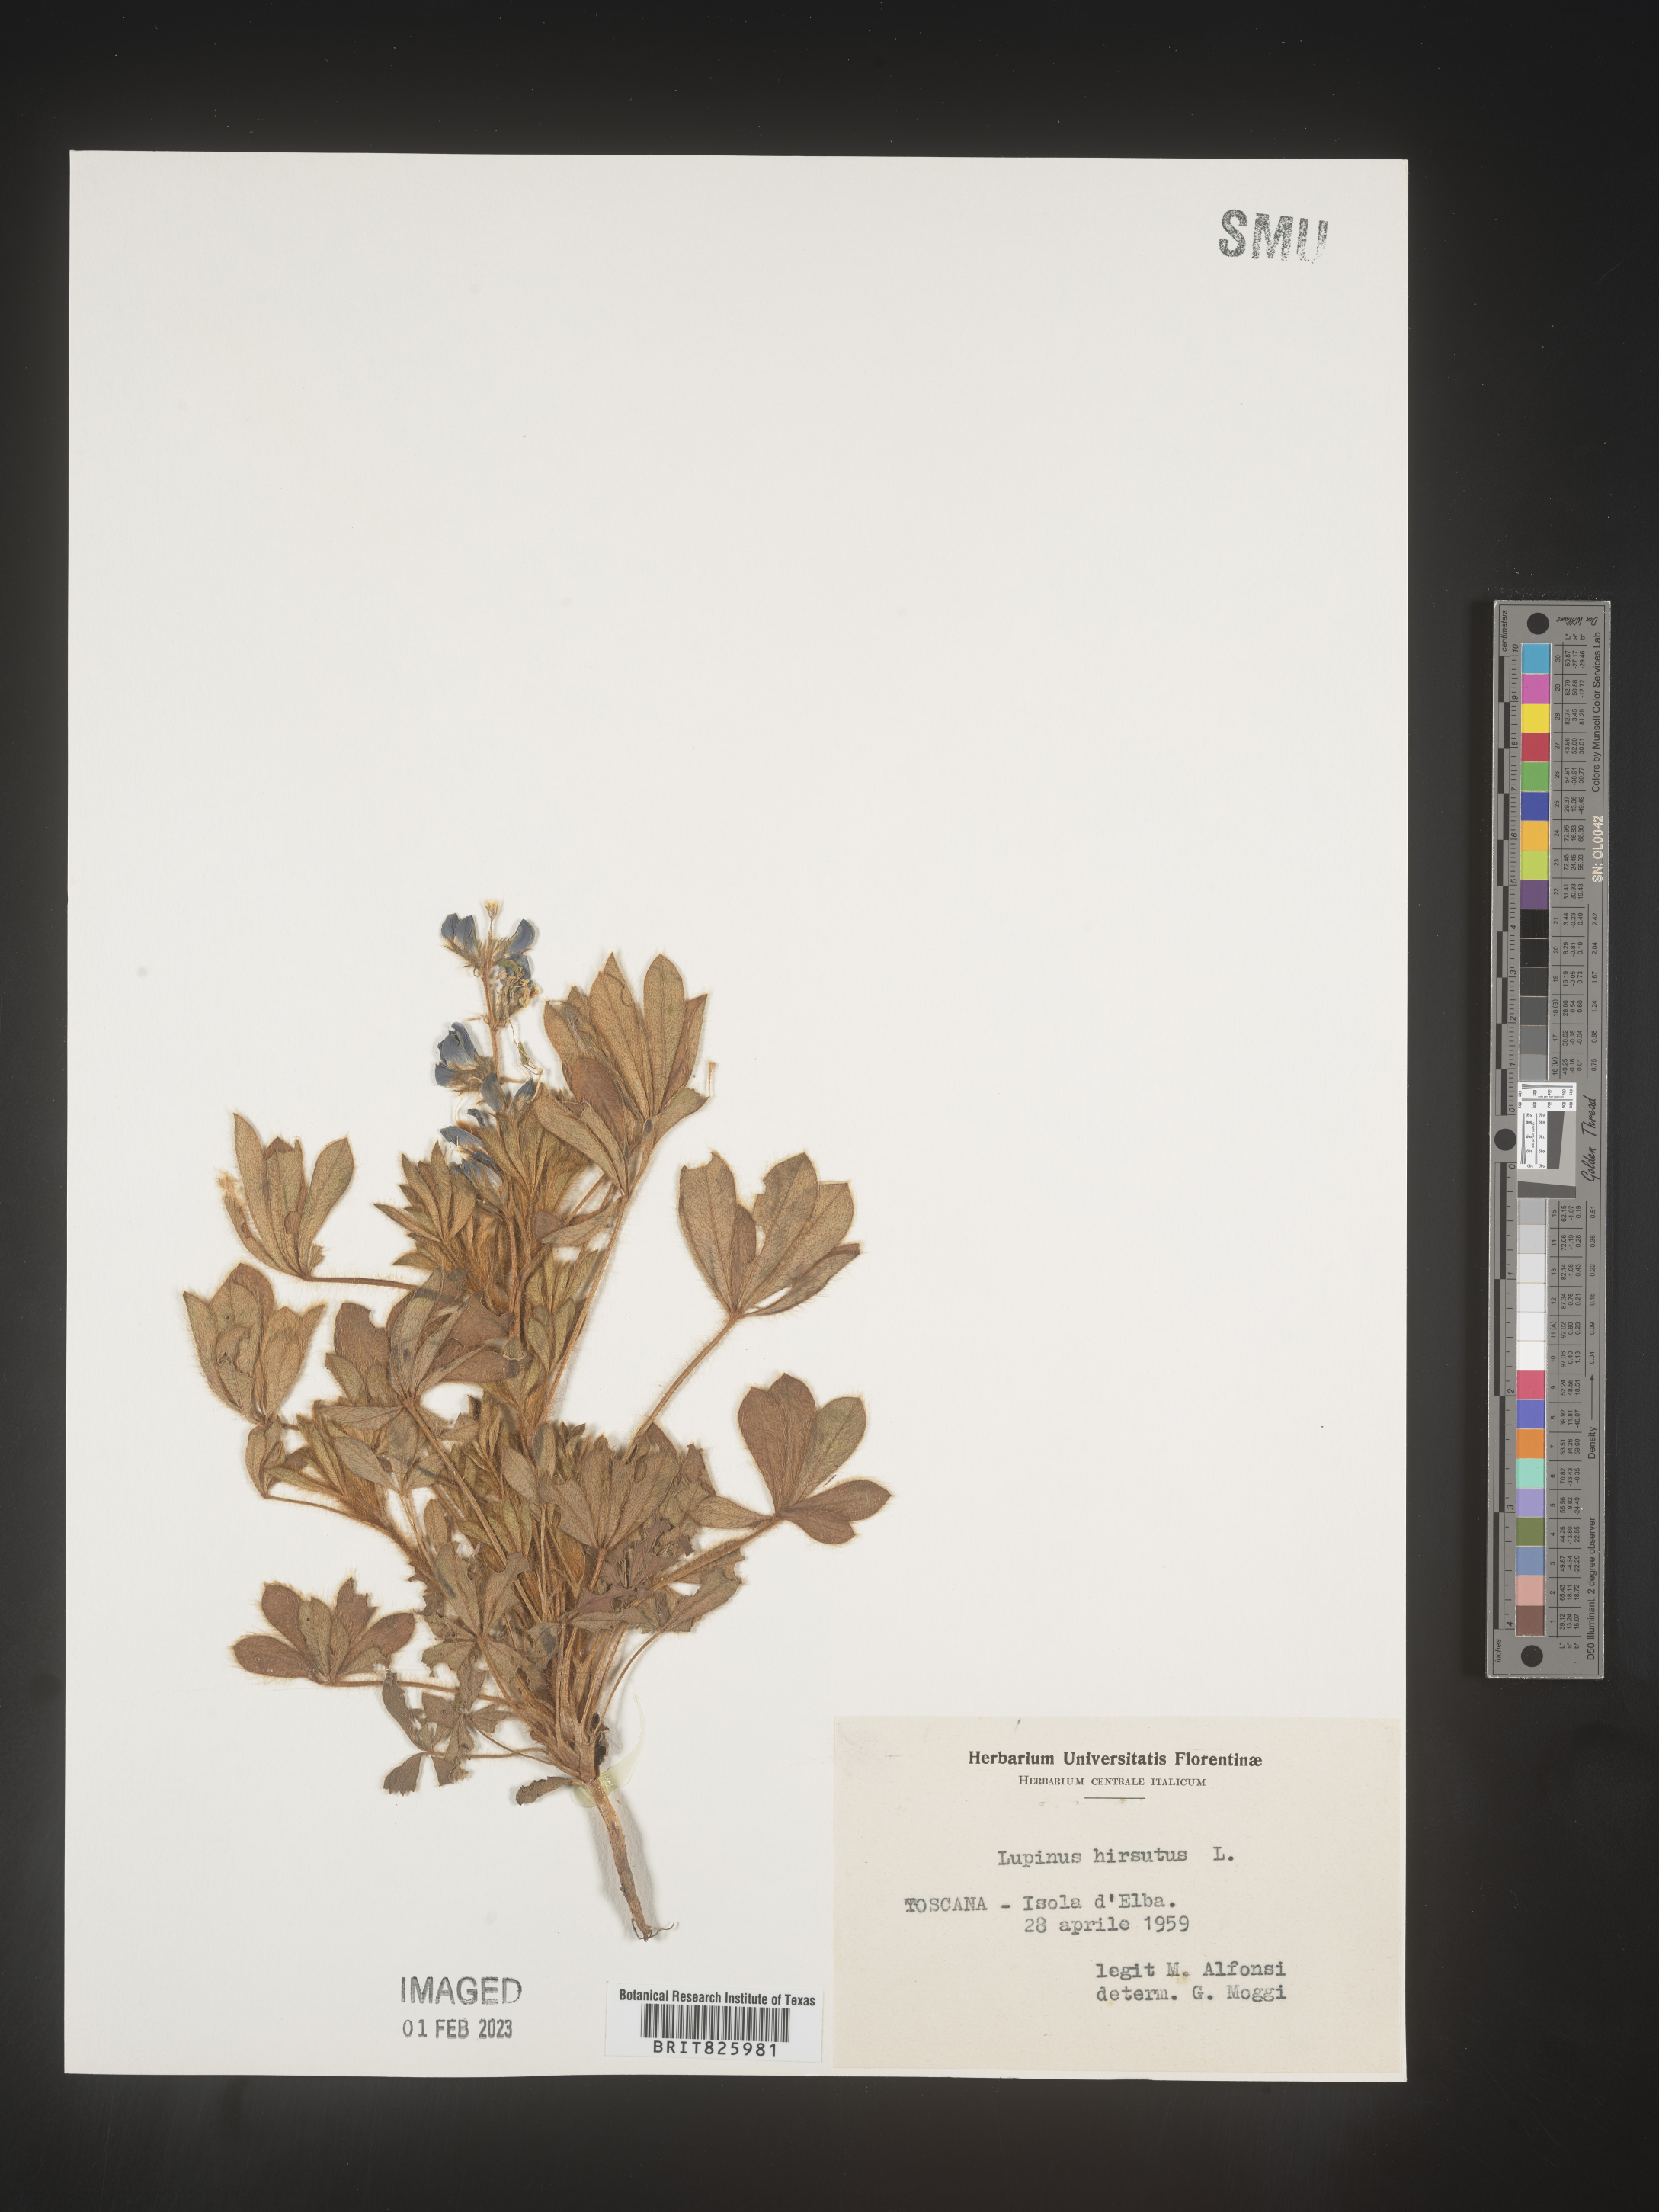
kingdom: Plantae
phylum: Tracheophyta
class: Magnoliopsida
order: Fabales
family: Fabaceae
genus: Lupinus
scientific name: Lupinus
